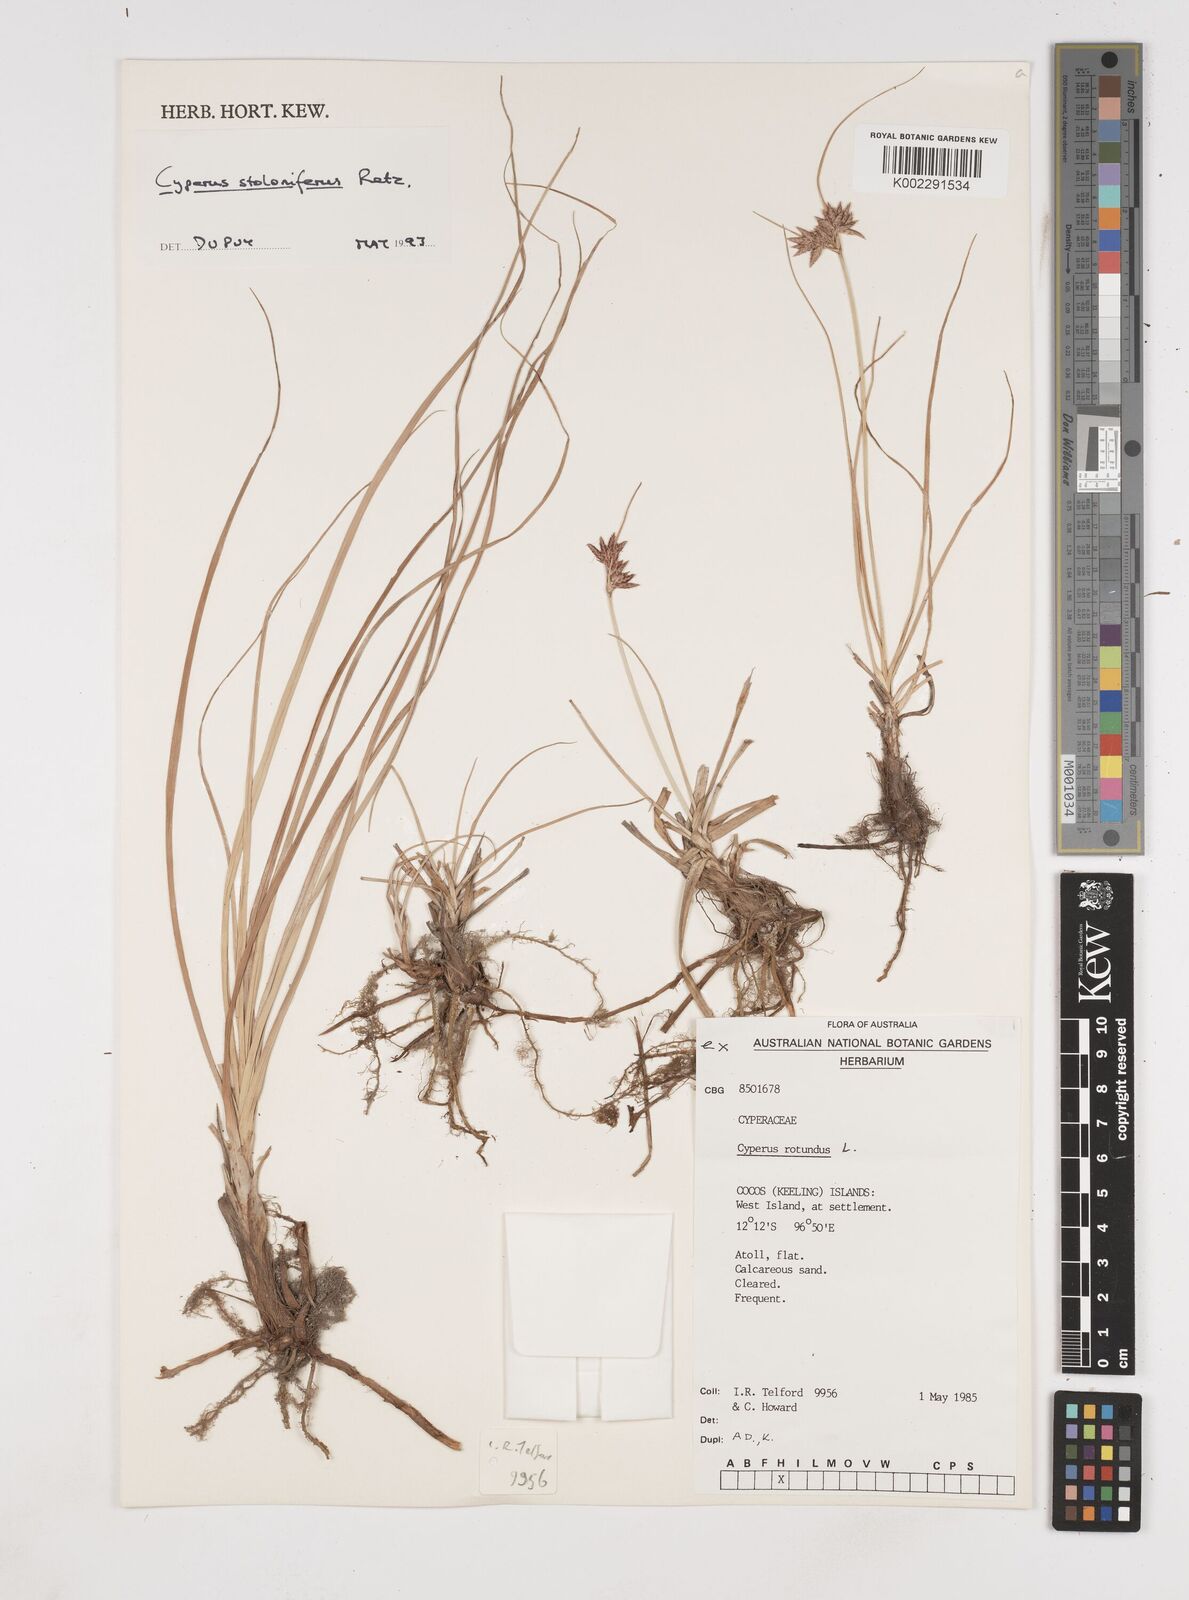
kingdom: Plantae
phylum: Tracheophyta
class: Liliopsida
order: Poales
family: Cyperaceae
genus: Cyperus
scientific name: Cyperus bulbosus
